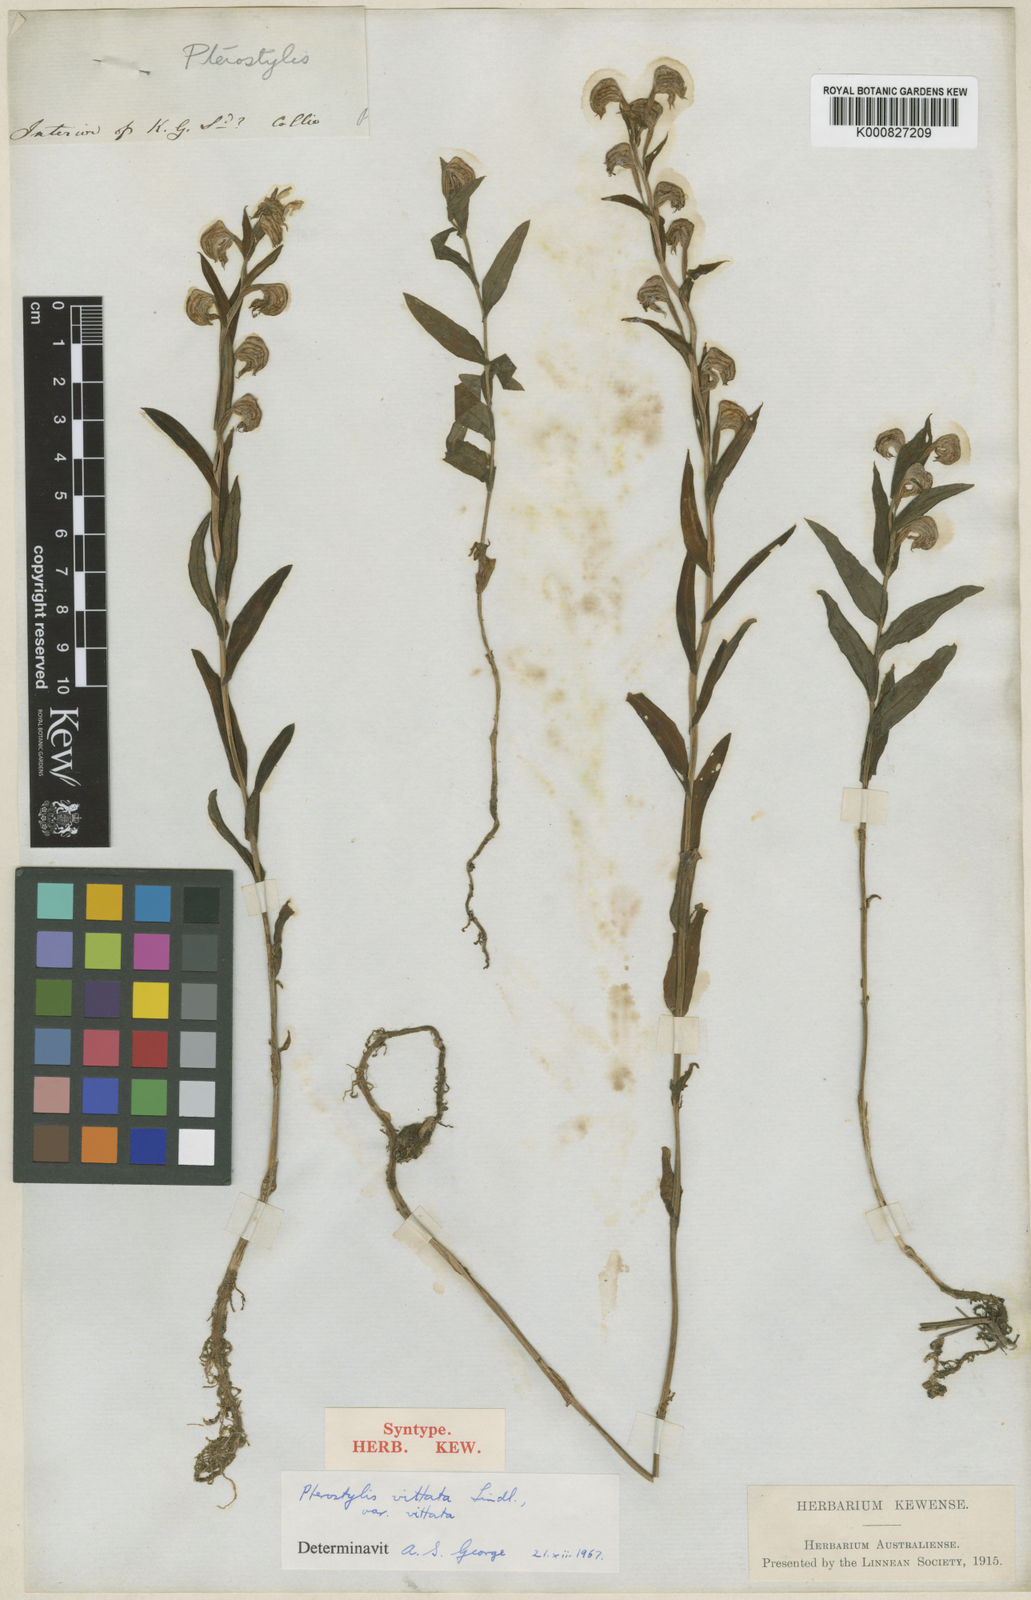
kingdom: Plantae
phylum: Tracheophyta
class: Liliopsida
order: Asparagales
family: Orchidaceae
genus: Pterostylis
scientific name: Pterostylis vittata
